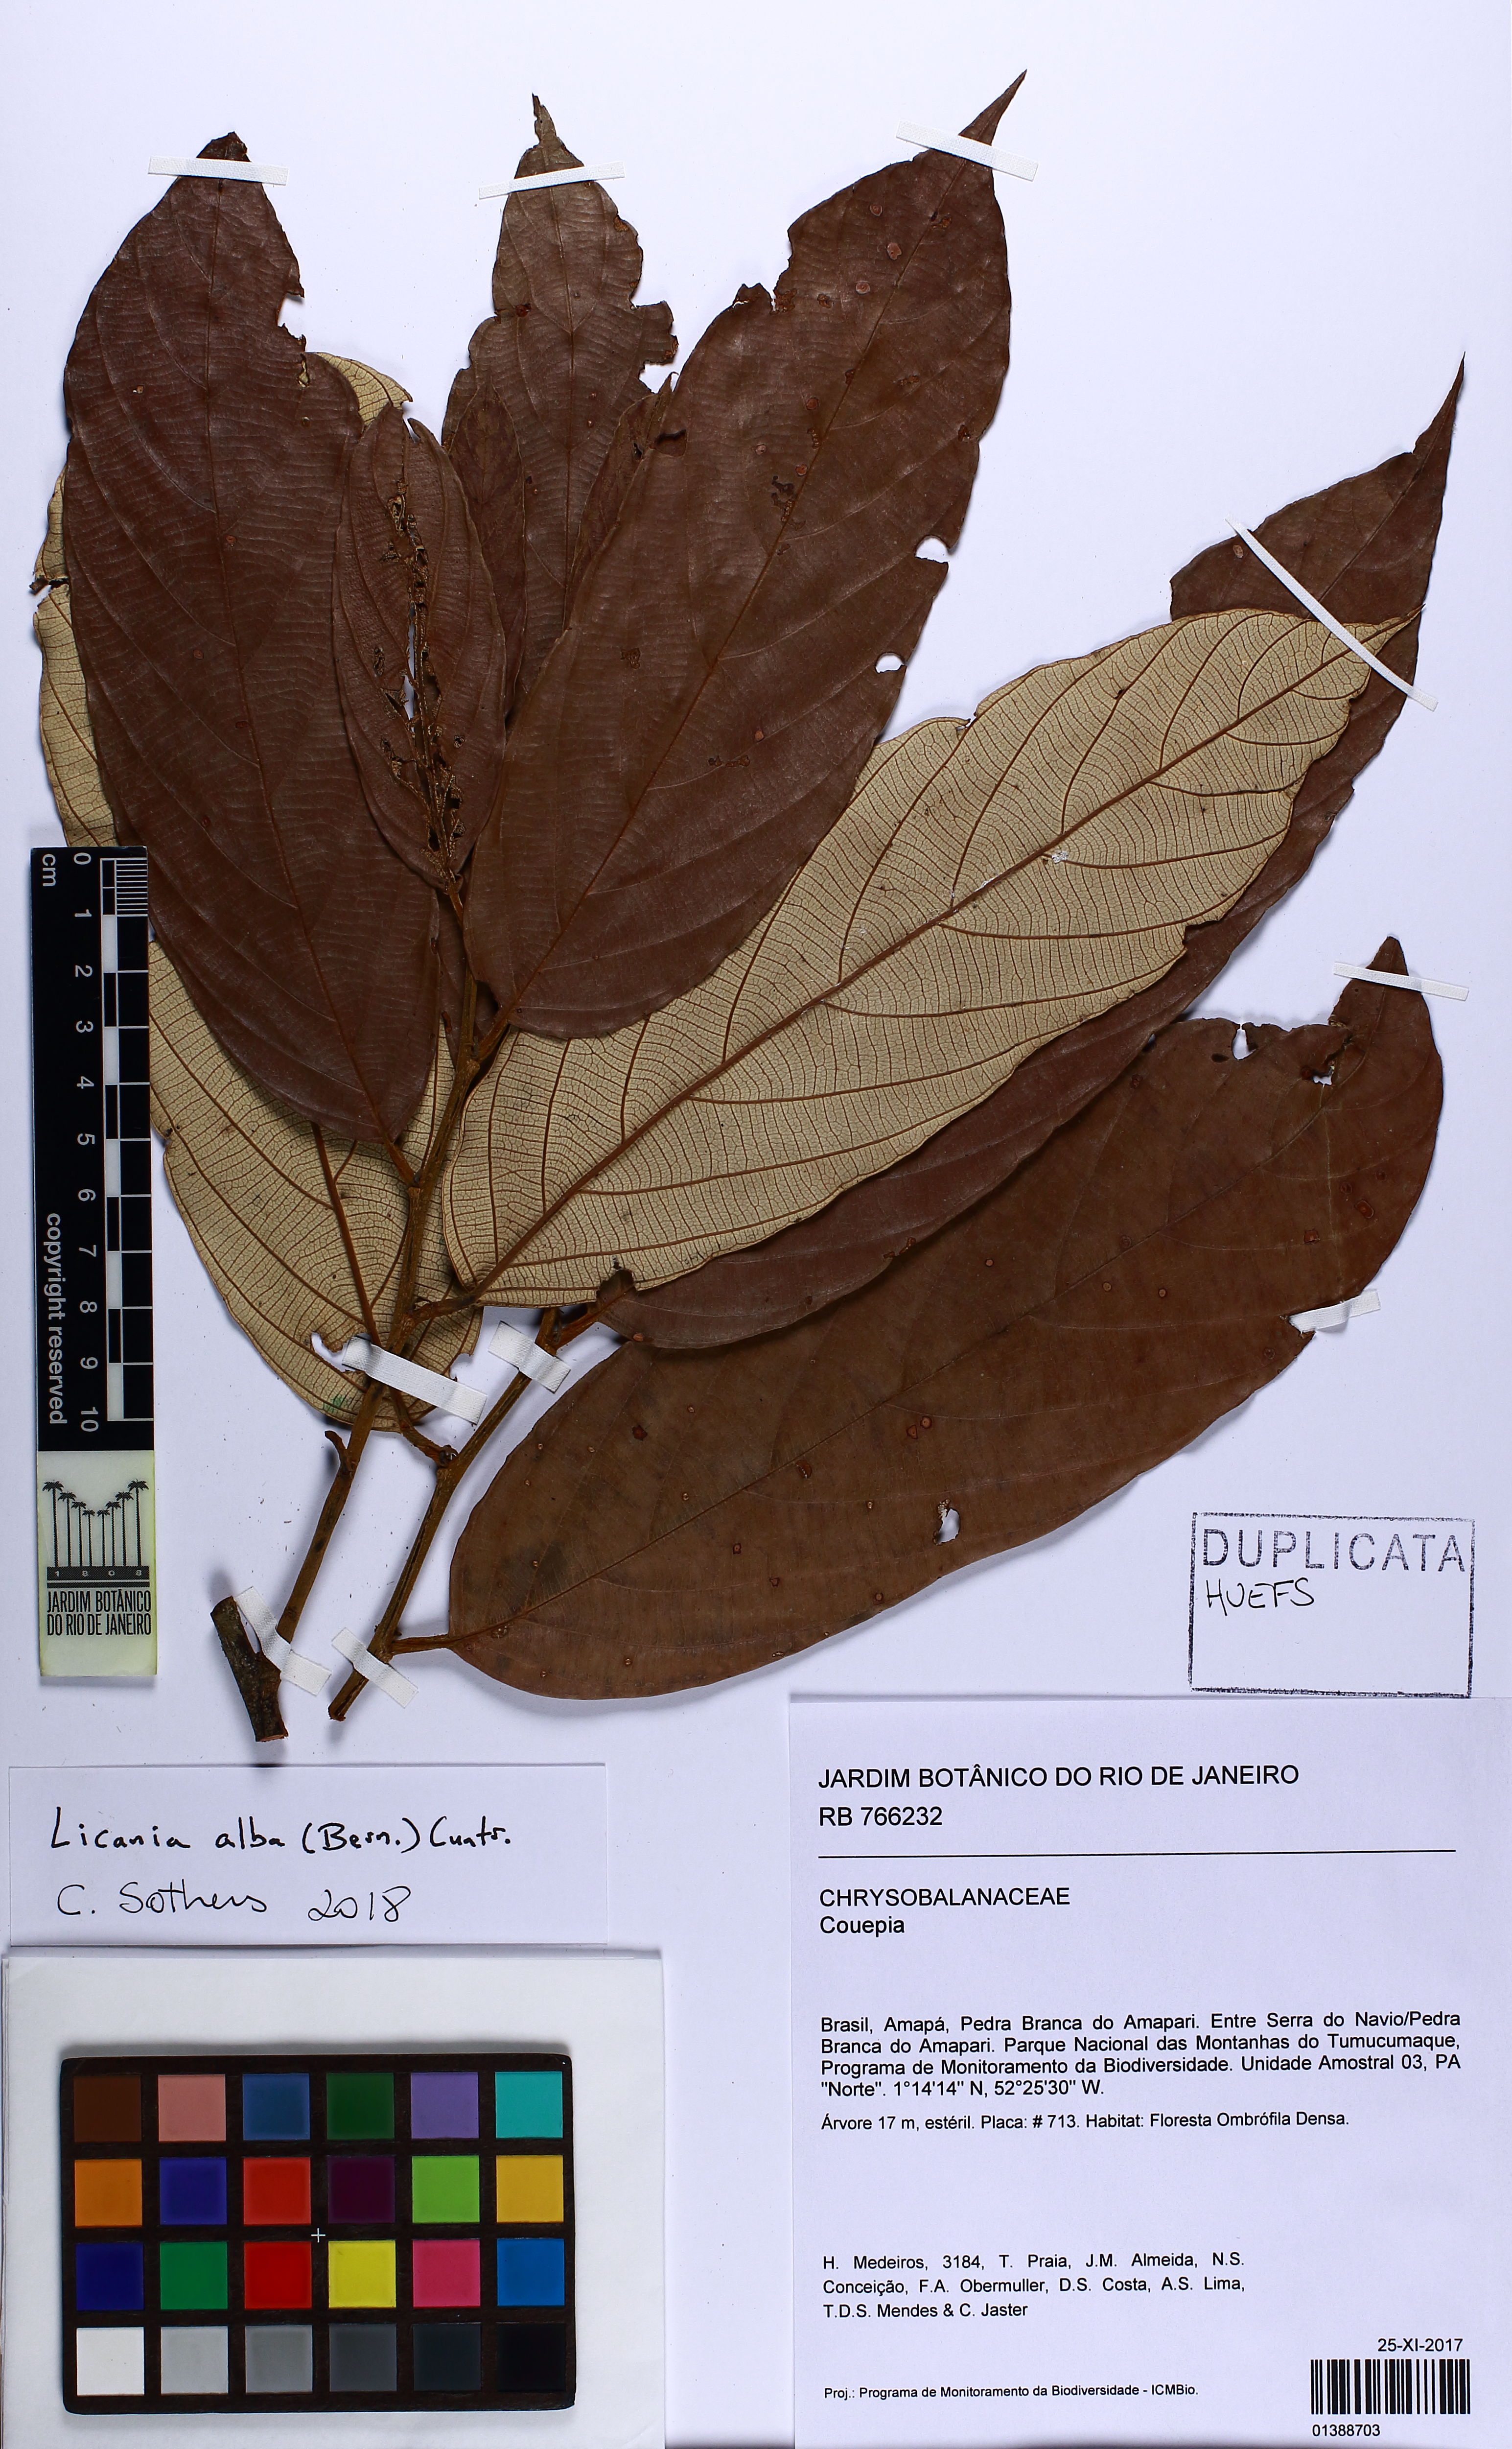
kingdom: Plantae
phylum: Tracheophyta
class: Magnoliopsida
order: Malpighiales
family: Chrysobalanaceae
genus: Licania
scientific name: Licania alba
